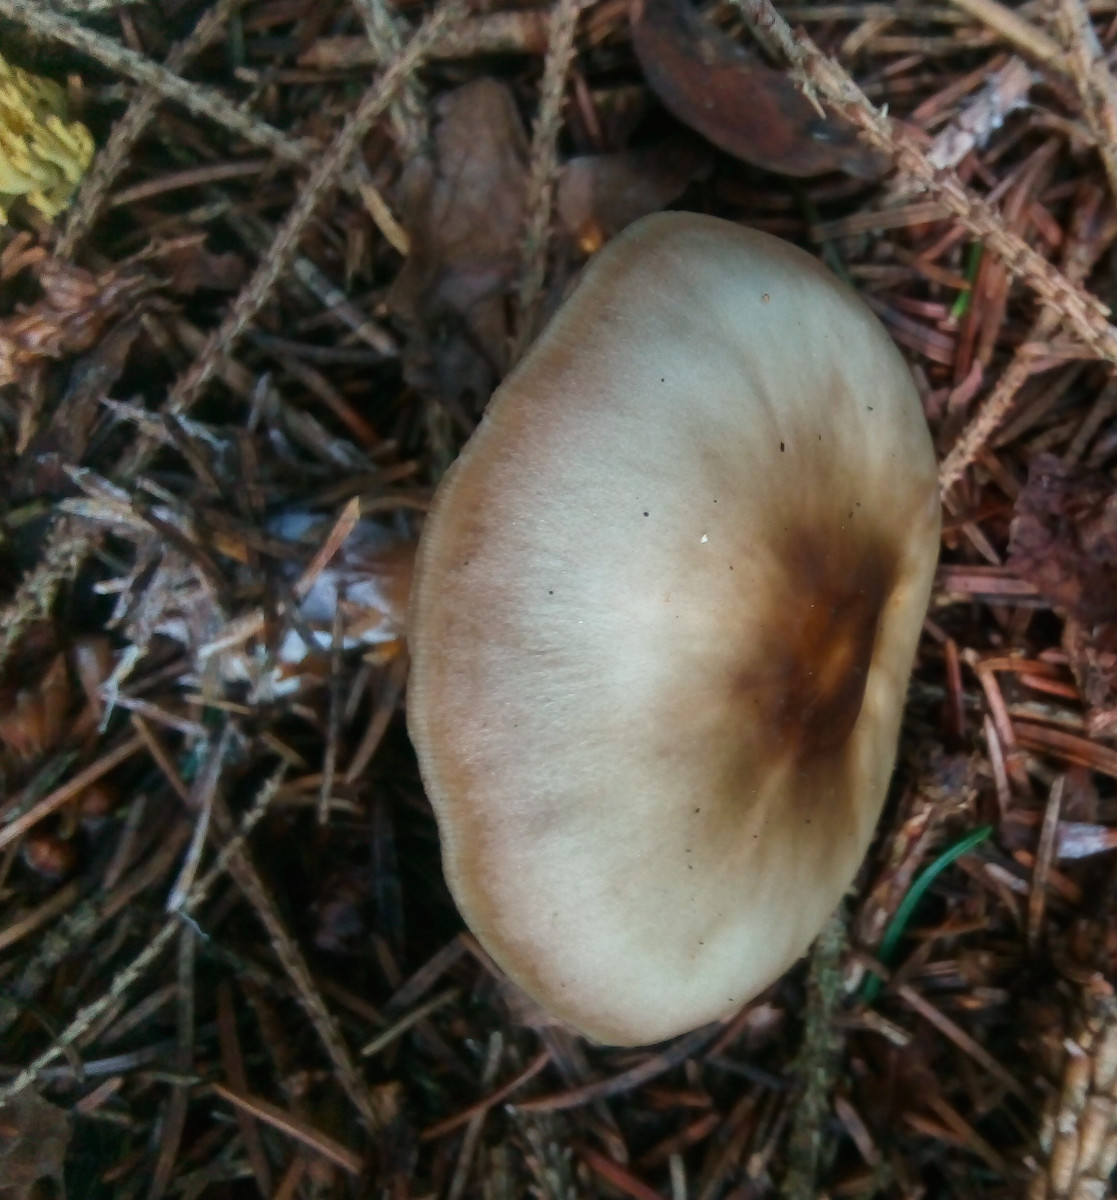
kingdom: Fungi
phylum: Basidiomycota
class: Agaricomycetes
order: Agaricales
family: Omphalotaceae
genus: Rhodocollybia
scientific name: Rhodocollybia asema
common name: horngrå fladhat
